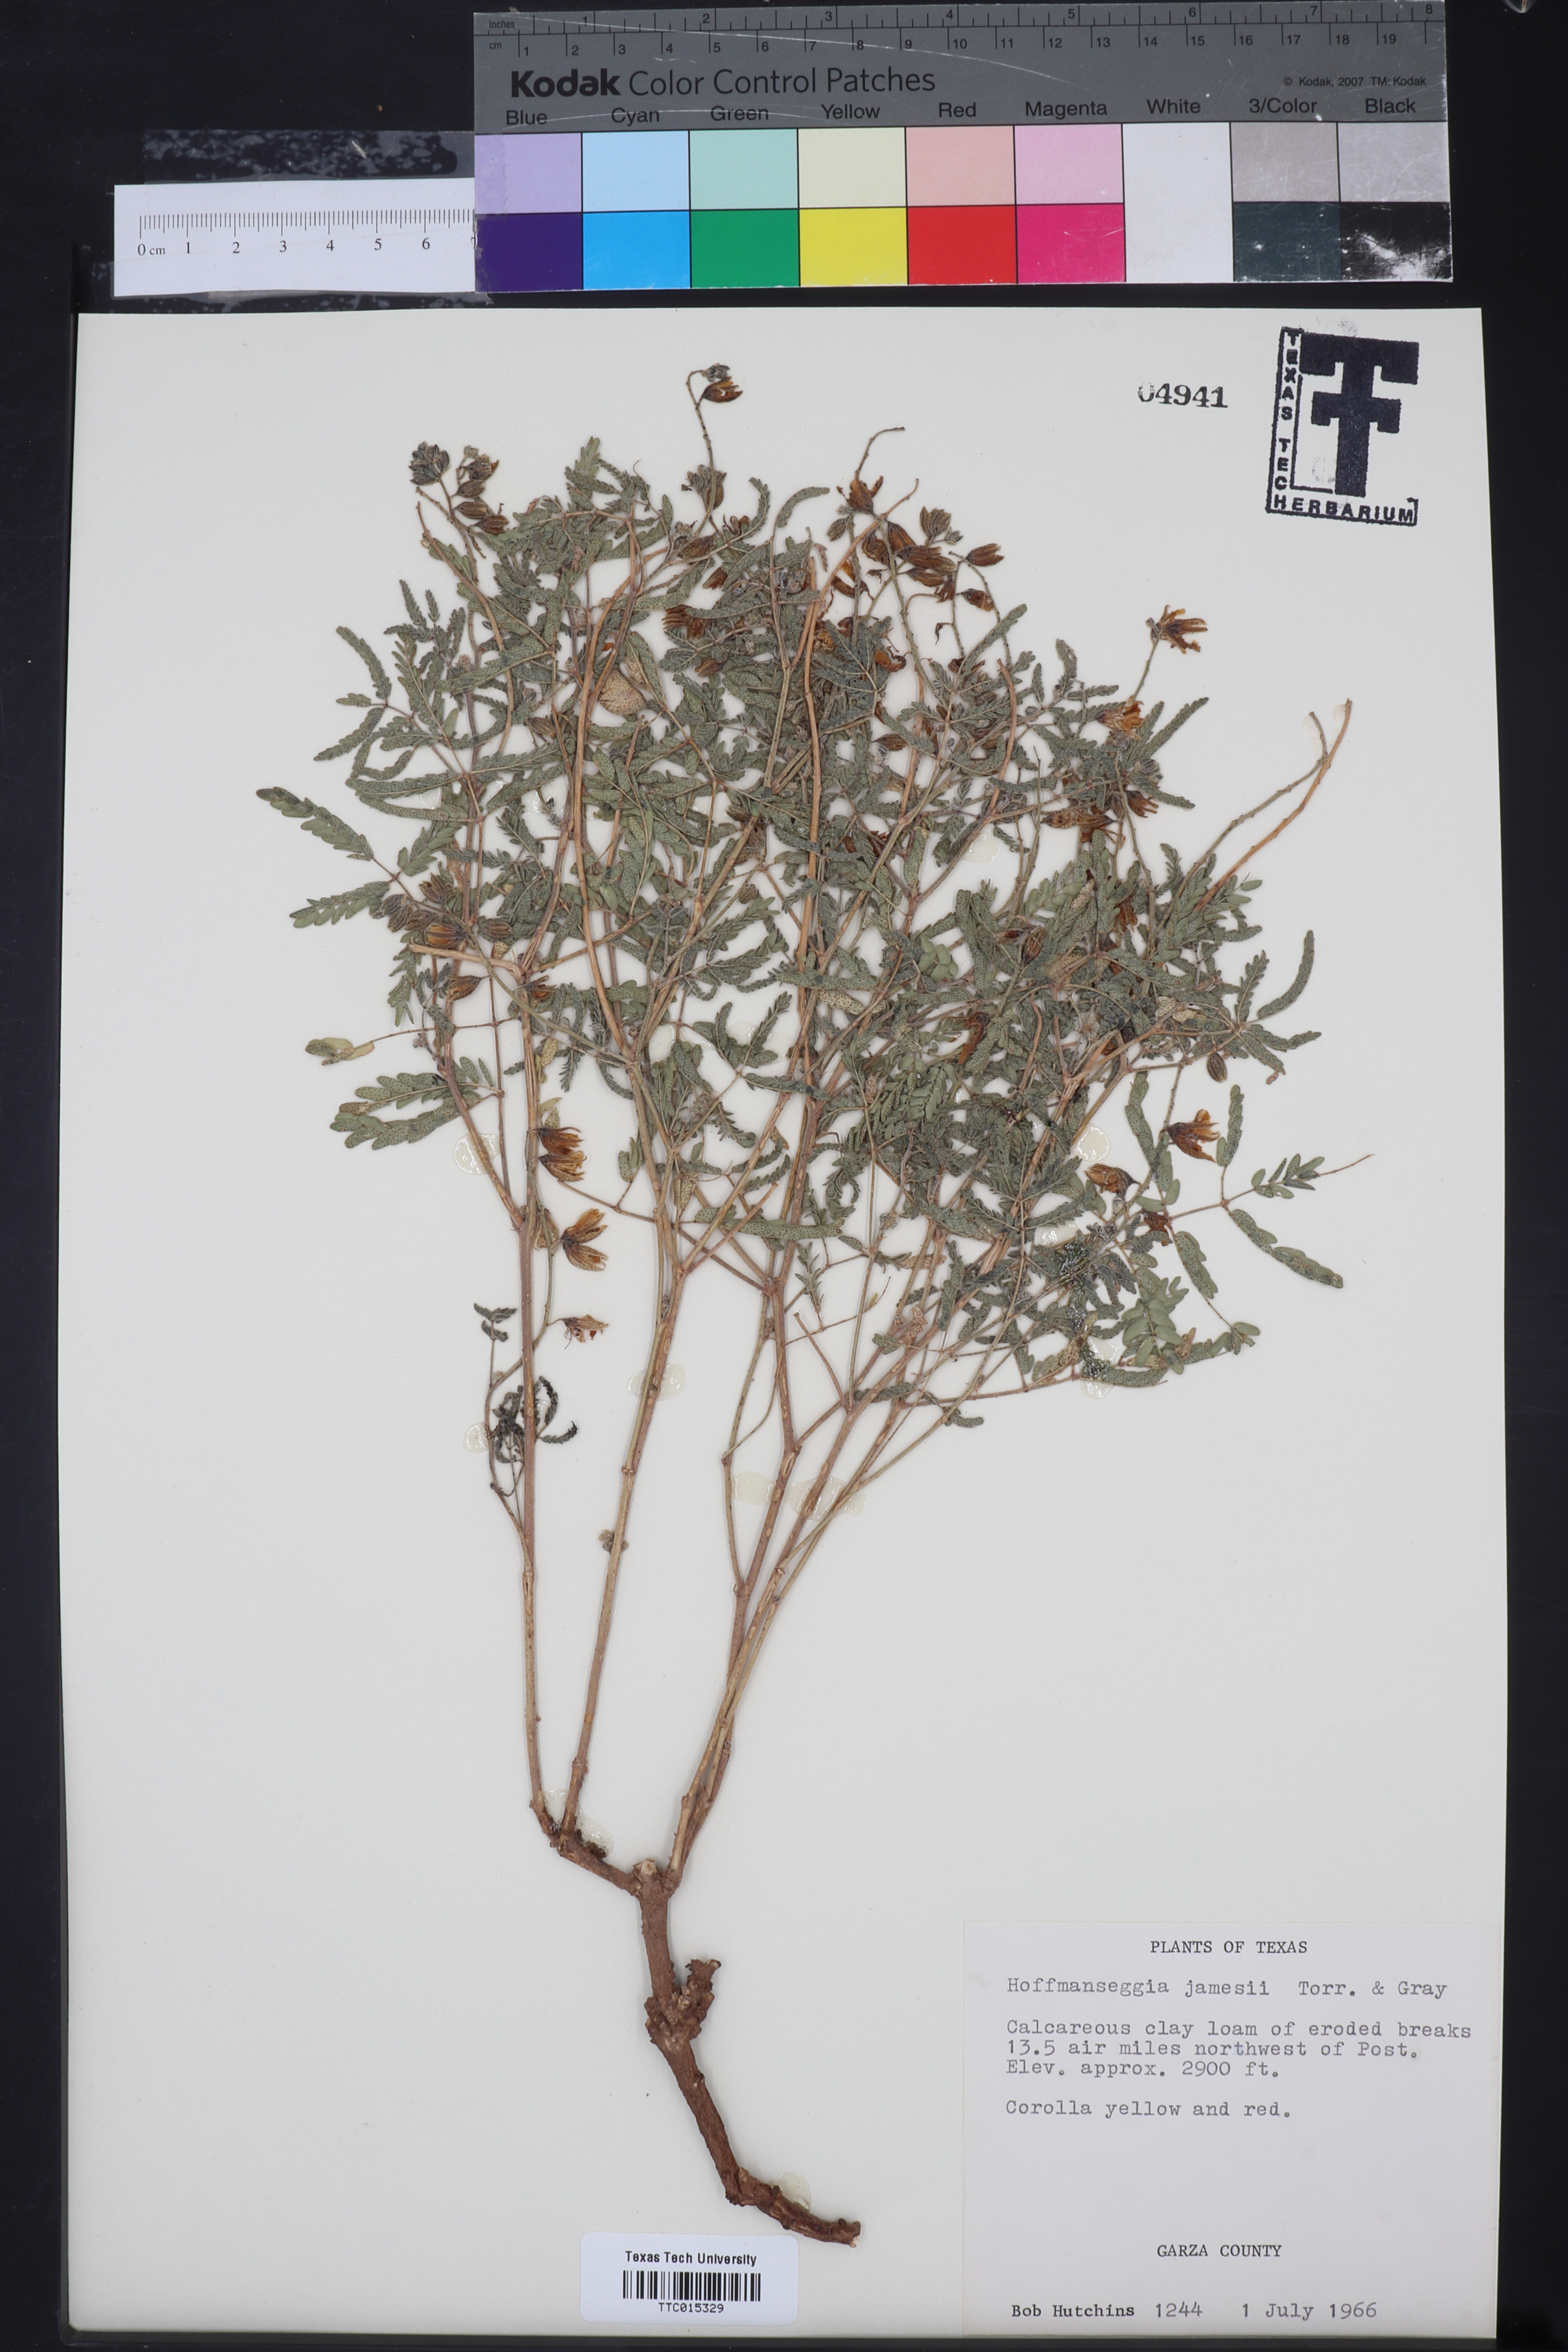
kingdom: Plantae
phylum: Tracheophyta
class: Magnoliopsida
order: Fabales
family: Fabaceae
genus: Pomaria
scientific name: Pomaria jamesii
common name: James' caesalpinia
